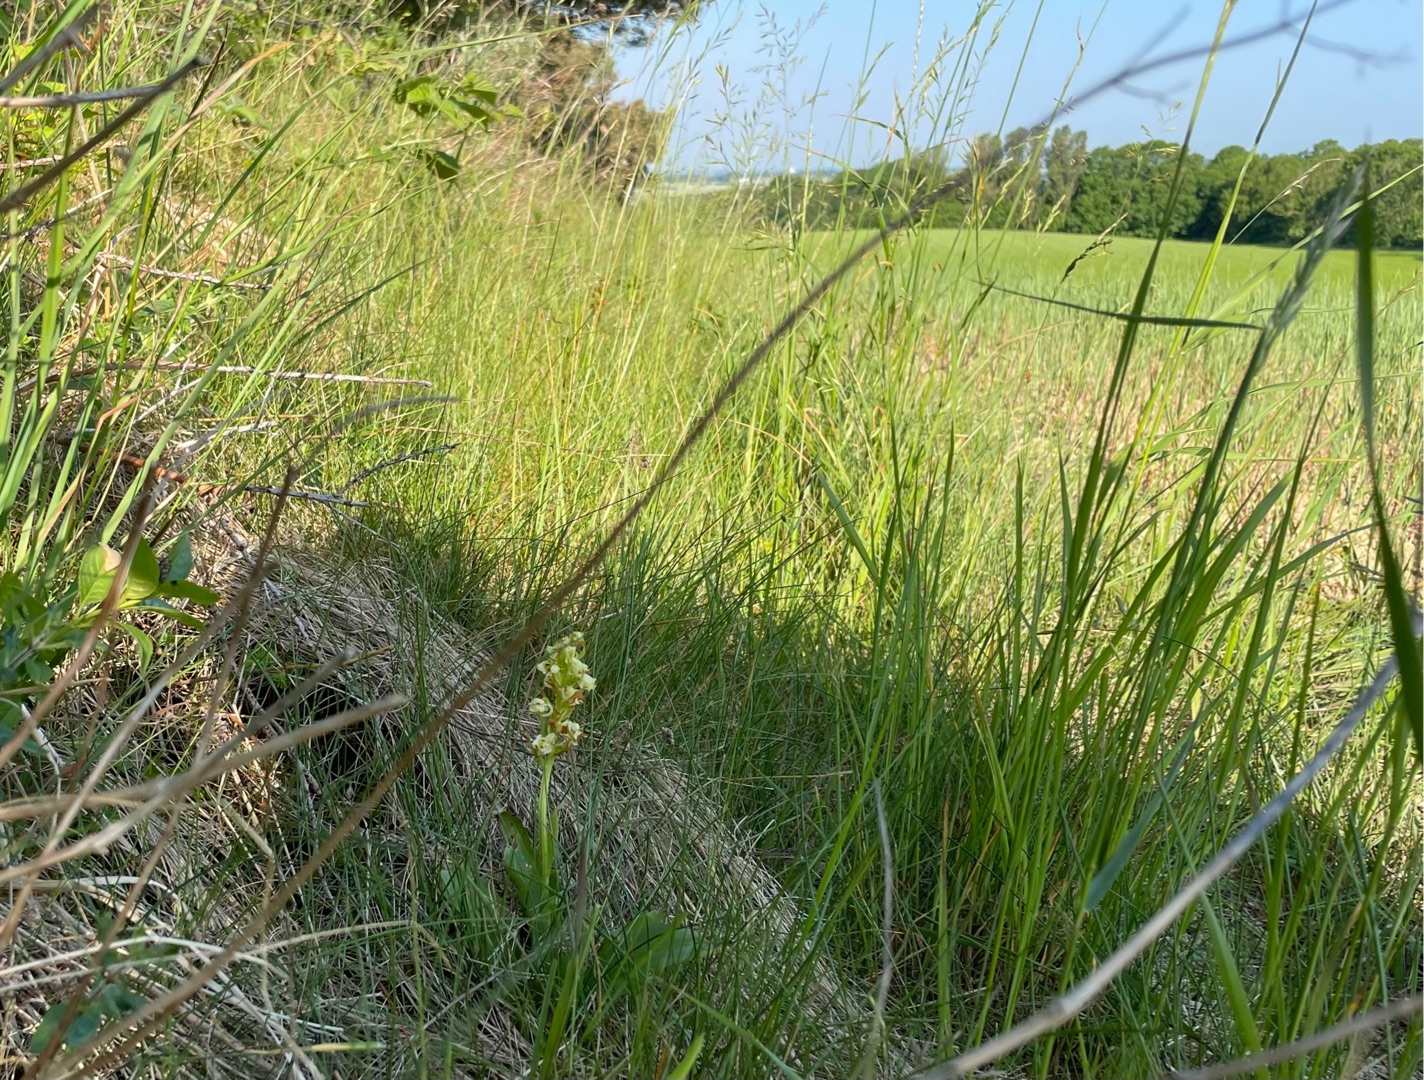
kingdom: Plantae
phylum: Tracheophyta
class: Liliopsida
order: Asparagales
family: Orchidaceae
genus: Platanthera
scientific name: Platanthera chlorantha
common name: Skov-gøgelilje
